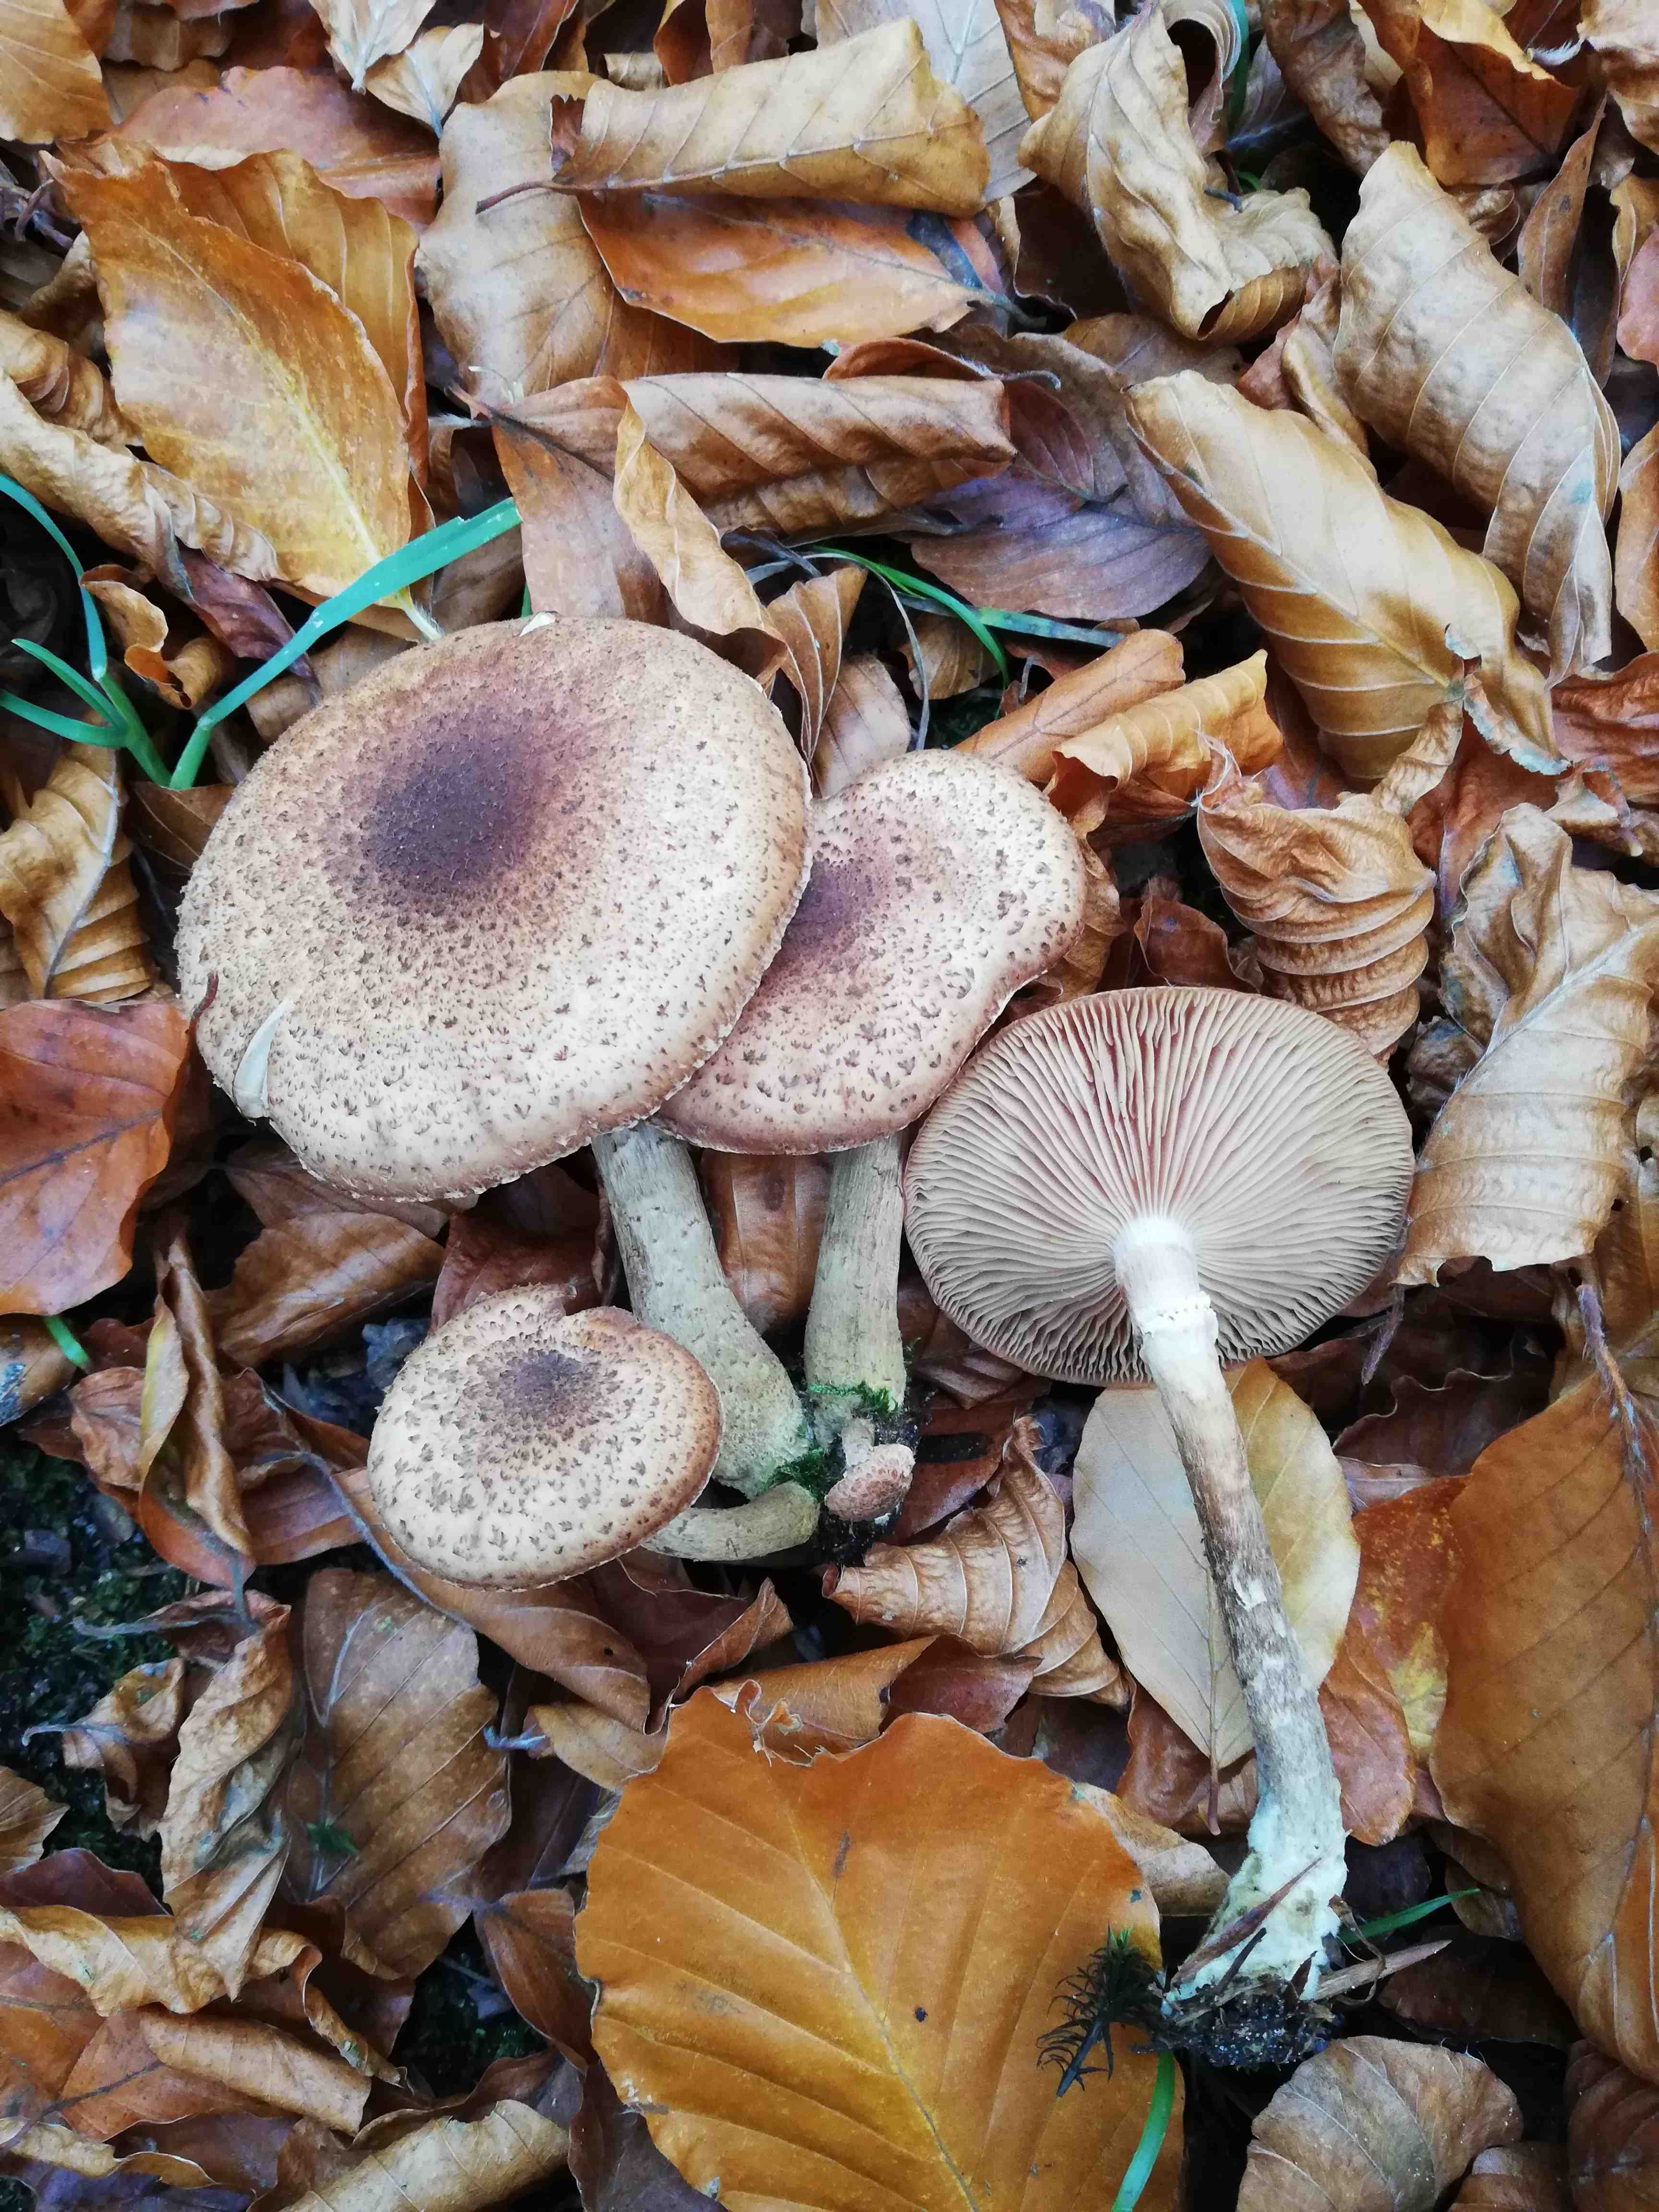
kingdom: Fungi
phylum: Basidiomycota
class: Agaricomycetes
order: Agaricales
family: Physalacriaceae
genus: Armillaria
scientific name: Armillaria lutea
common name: køllestokket honningsvamp
